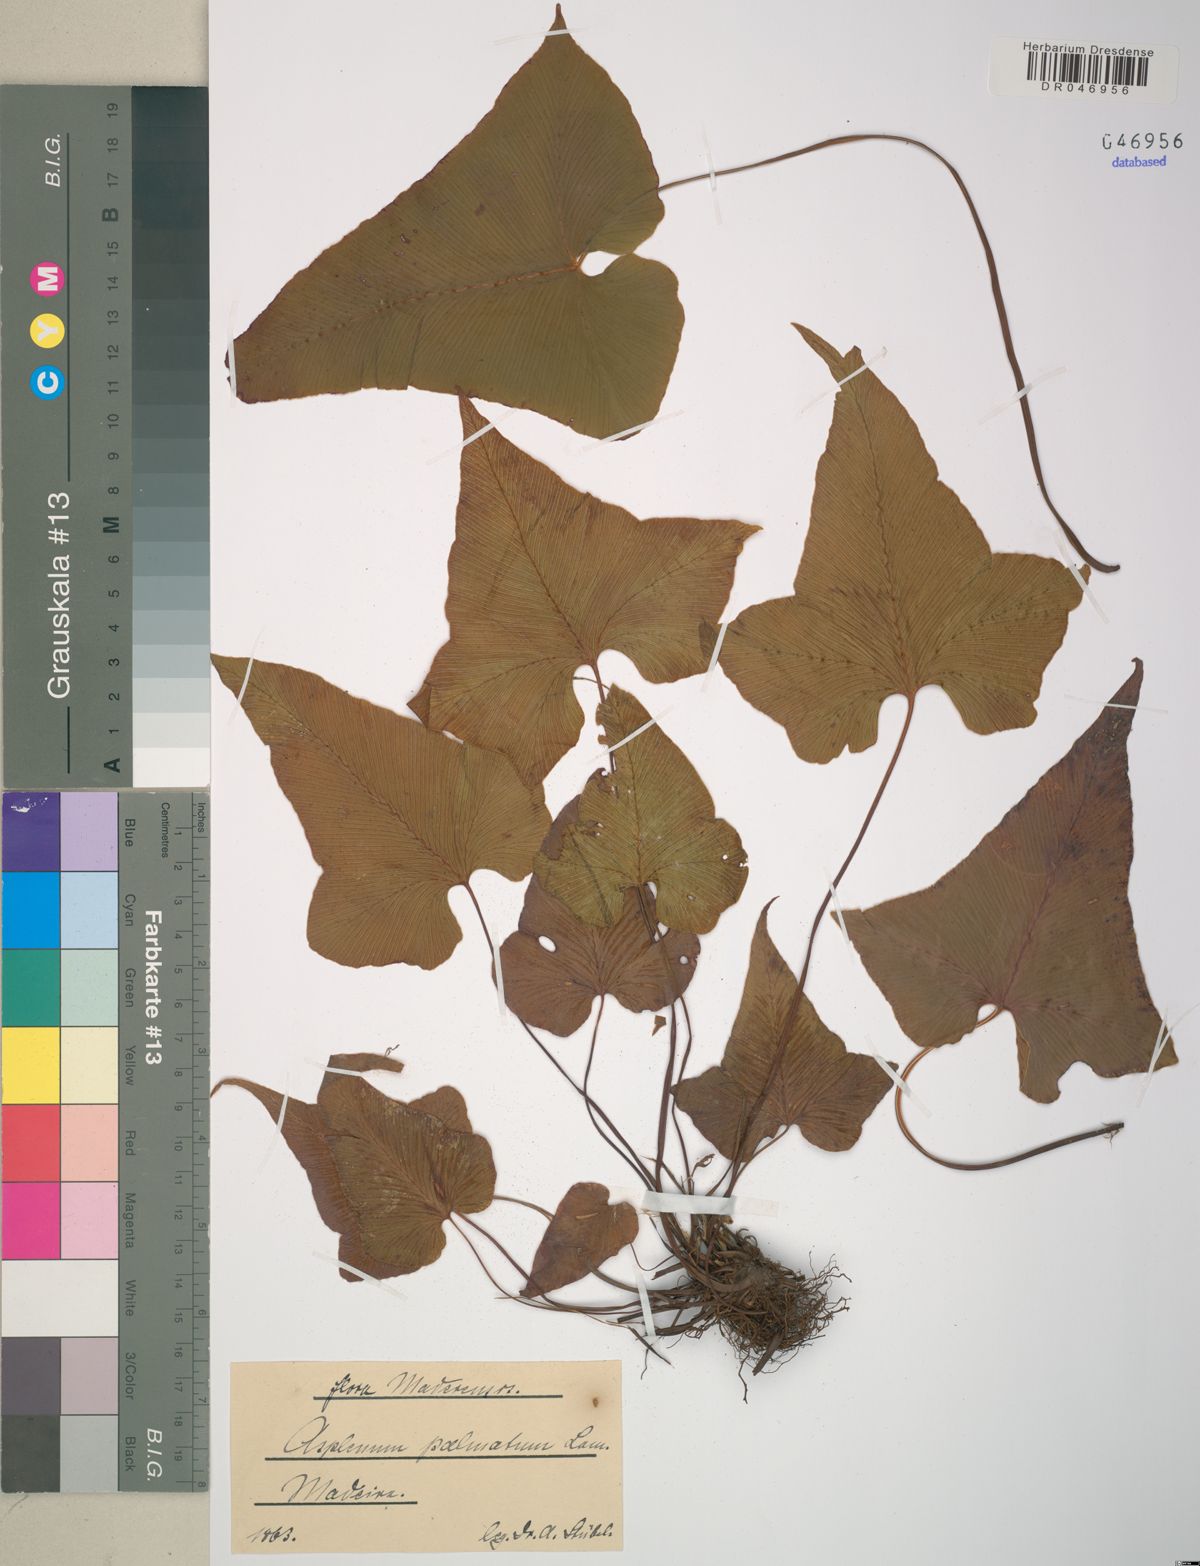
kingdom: Plantae
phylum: Tracheophyta
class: Polypodiopsida
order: Polypodiales
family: Aspleniaceae
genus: Asplenium
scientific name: Asplenium hemionitis
